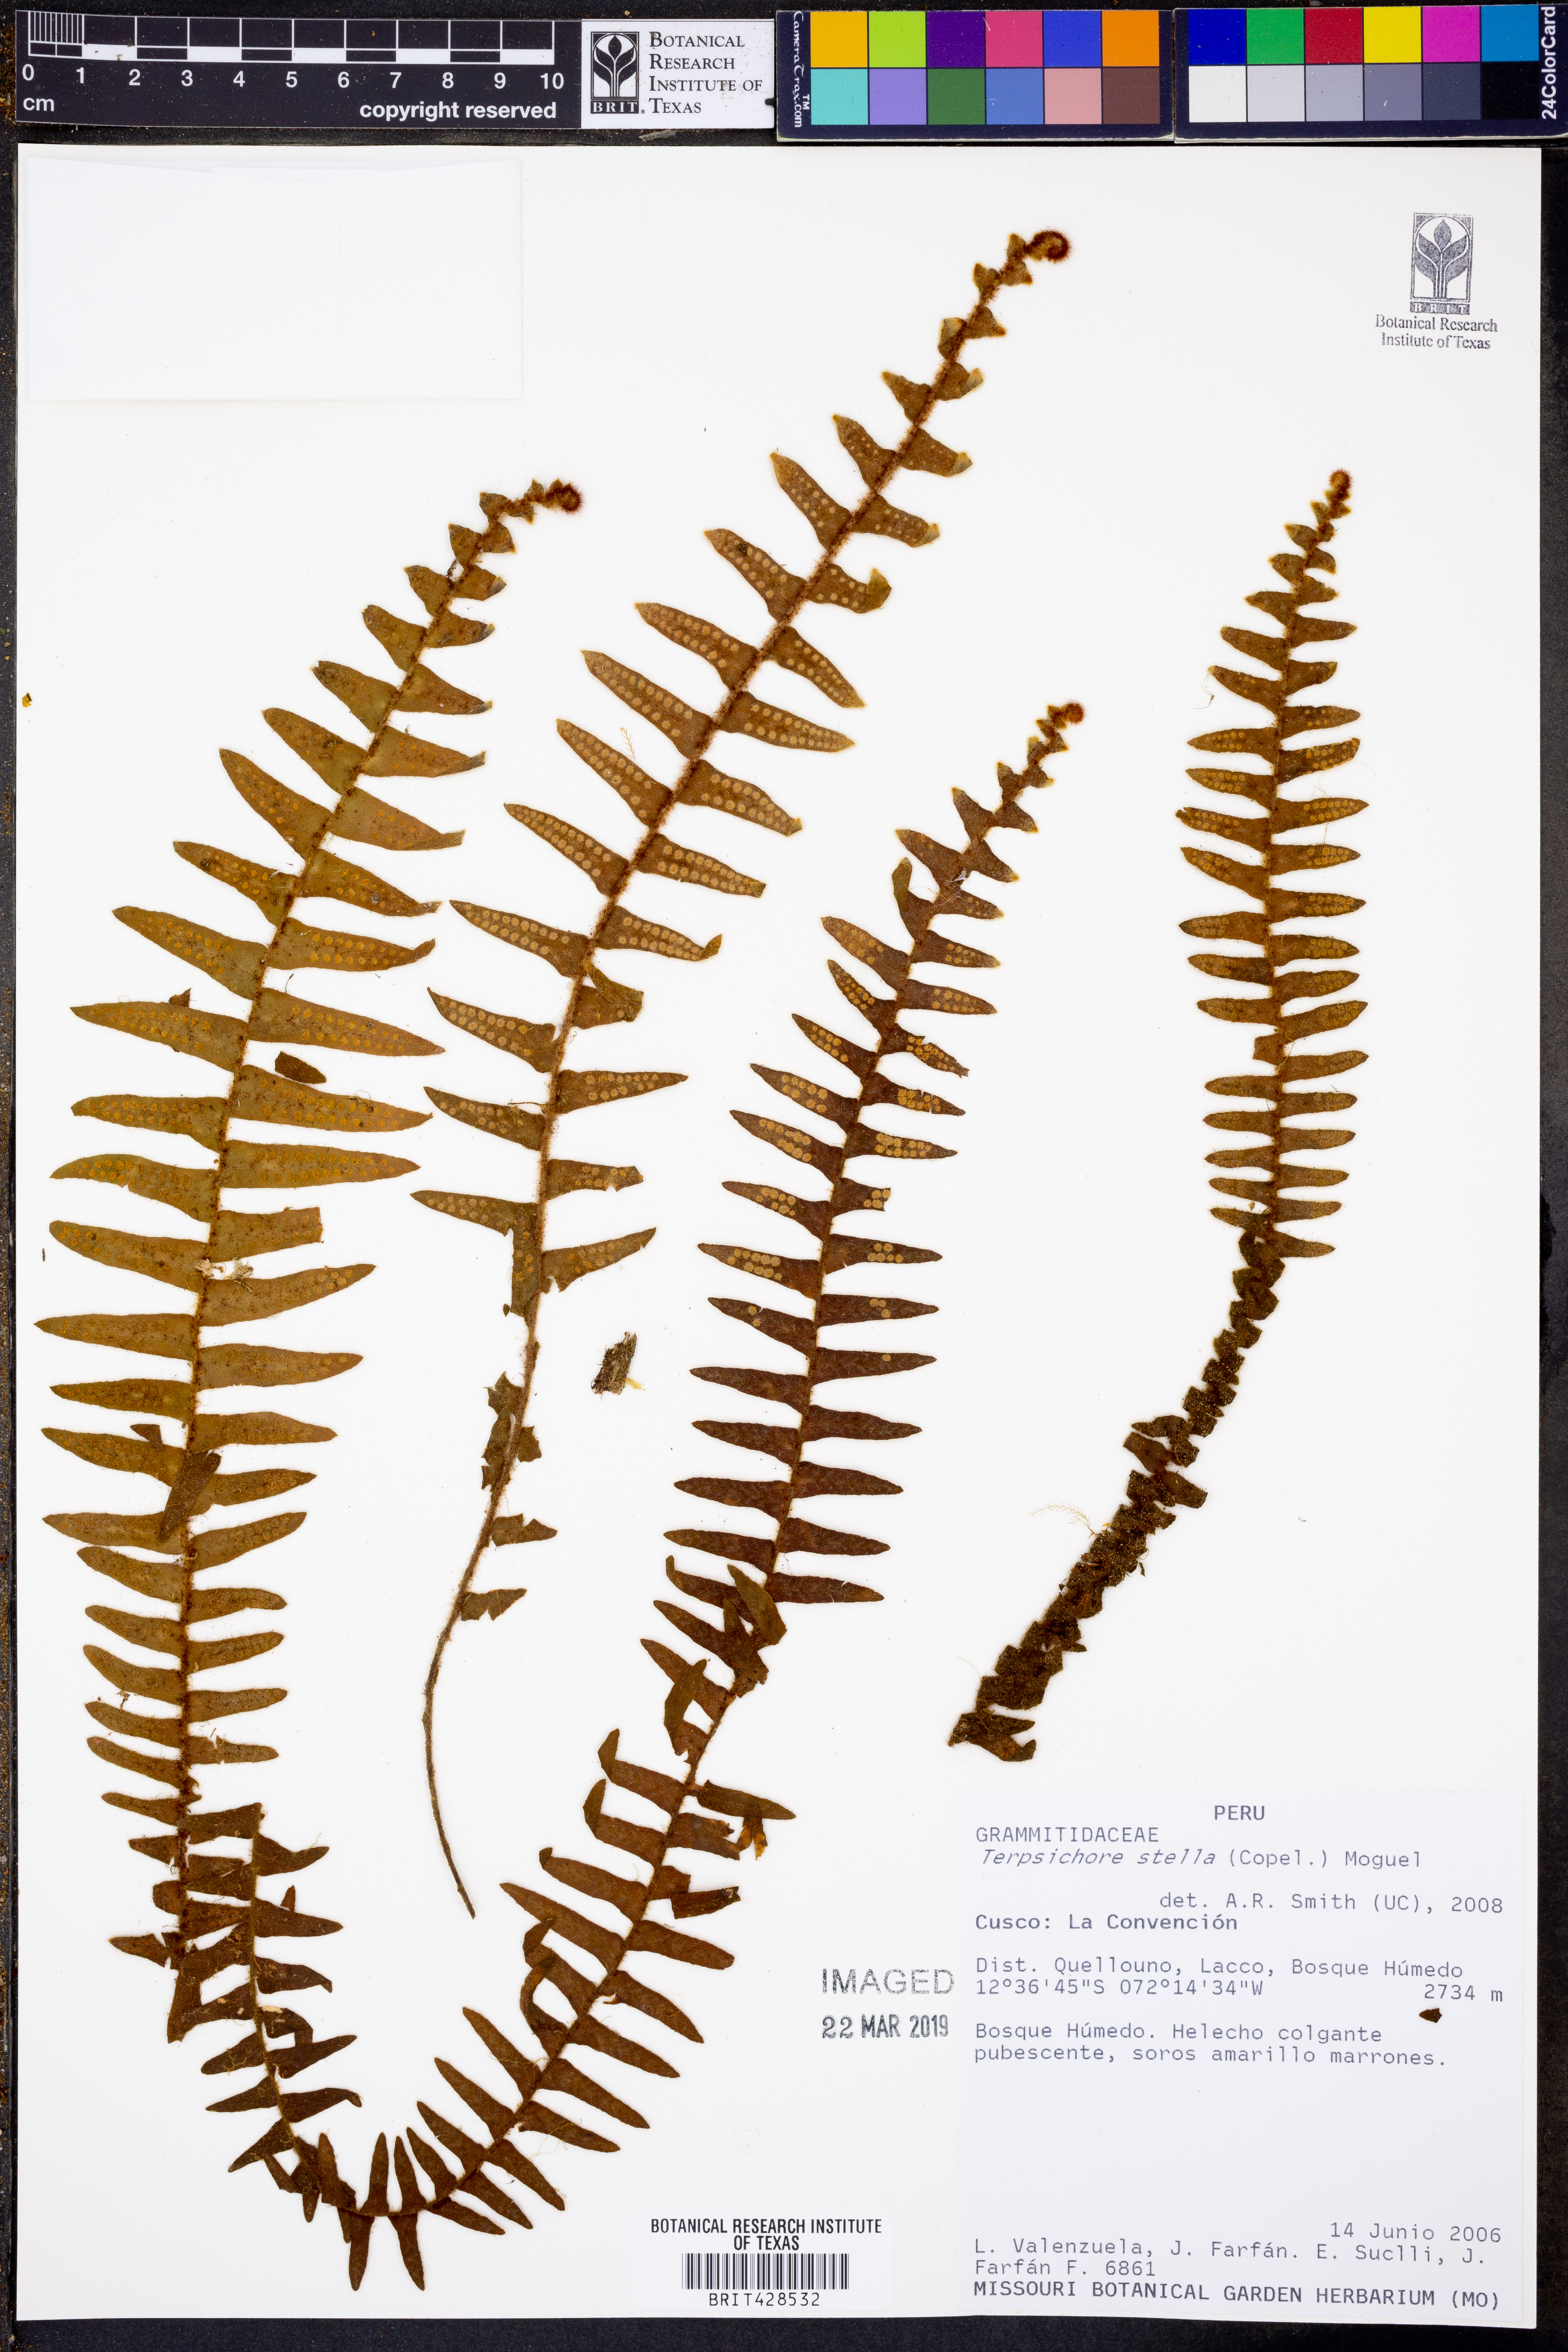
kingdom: Plantae
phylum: Tracheophyta
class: Polypodiopsida
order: Polypodiales
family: Polypodiaceae
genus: Alansmia
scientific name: Alansmia stella
